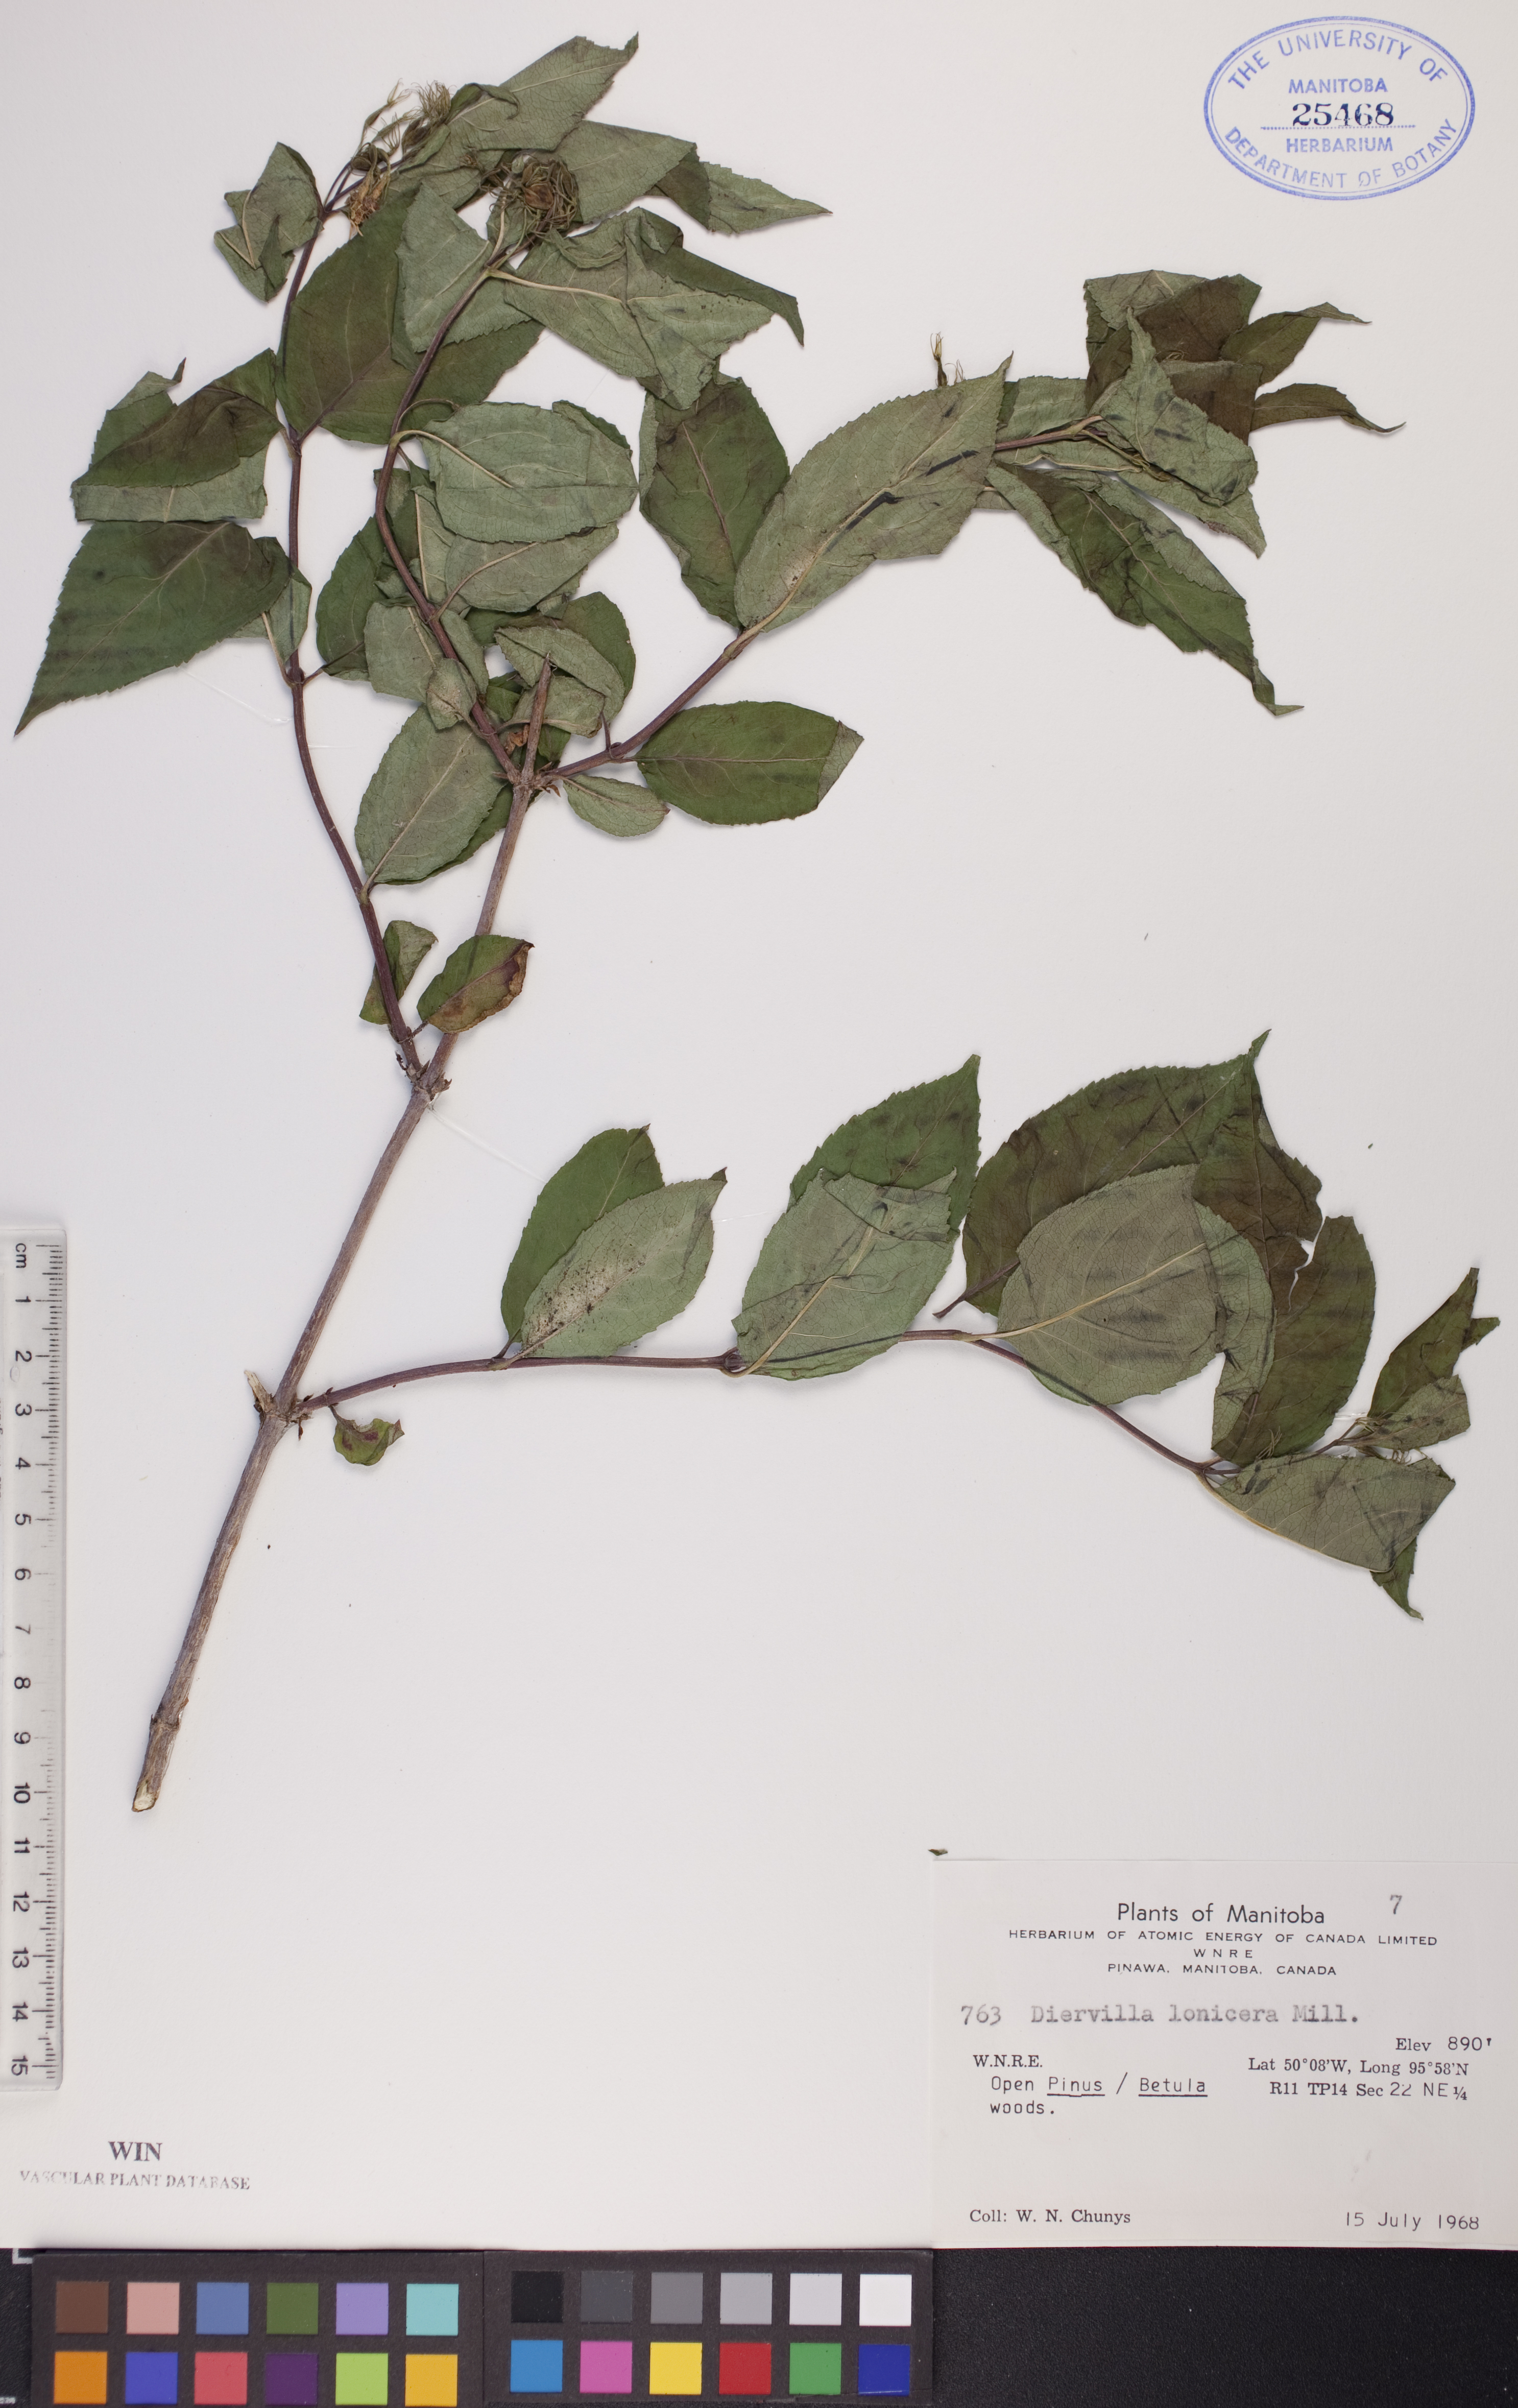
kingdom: Plantae
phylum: Tracheophyta
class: Magnoliopsida
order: Dipsacales
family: Caprifoliaceae
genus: Diervilla
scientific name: Diervilla lonicera
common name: Bush-honeysuckle
